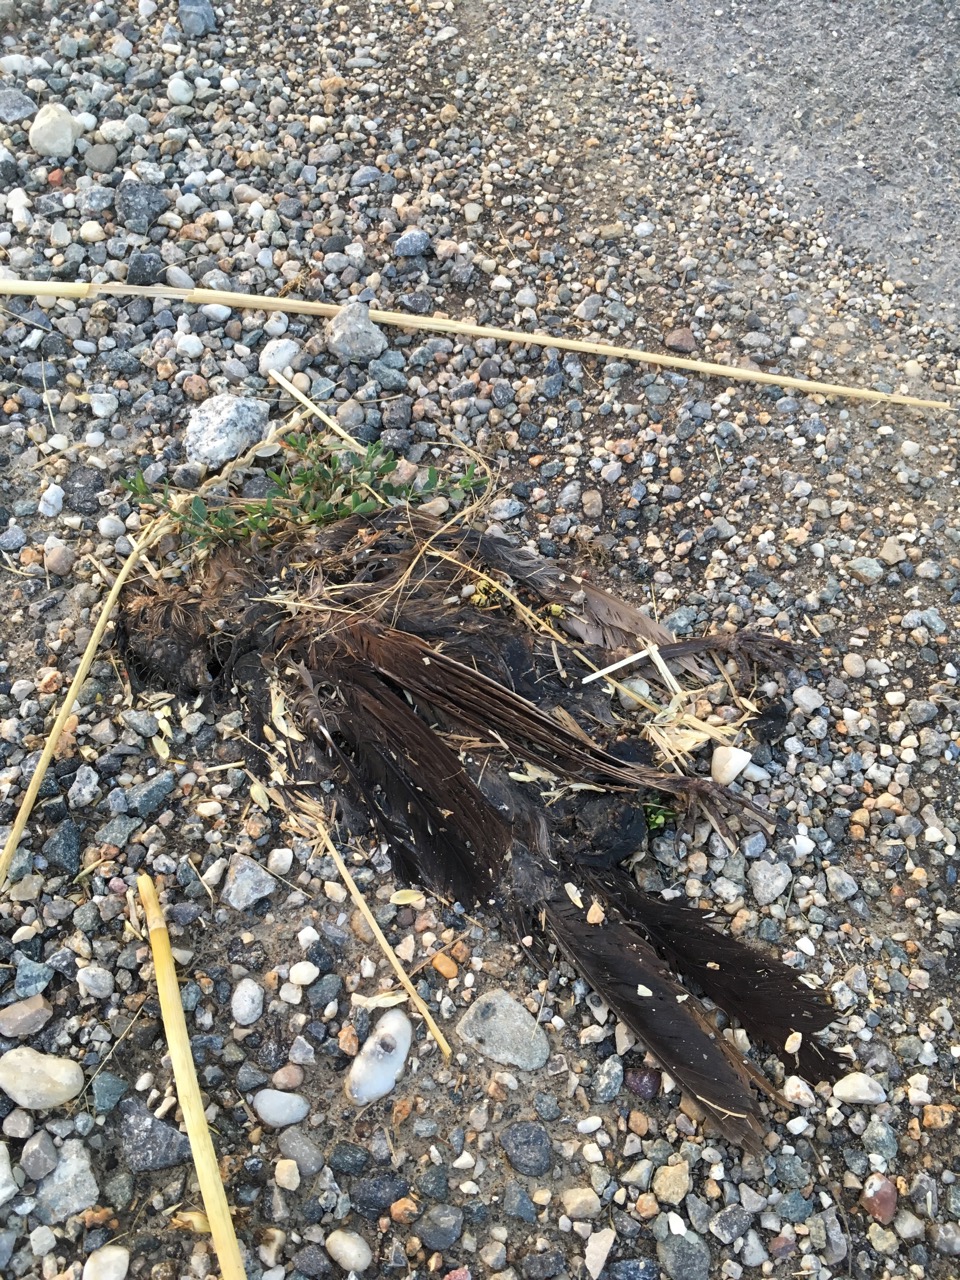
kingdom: Animalia
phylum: Chordata
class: Aves
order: Passeriformes
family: Turdidae
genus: Turdus
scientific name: Turdus merula
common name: Common blackbird
